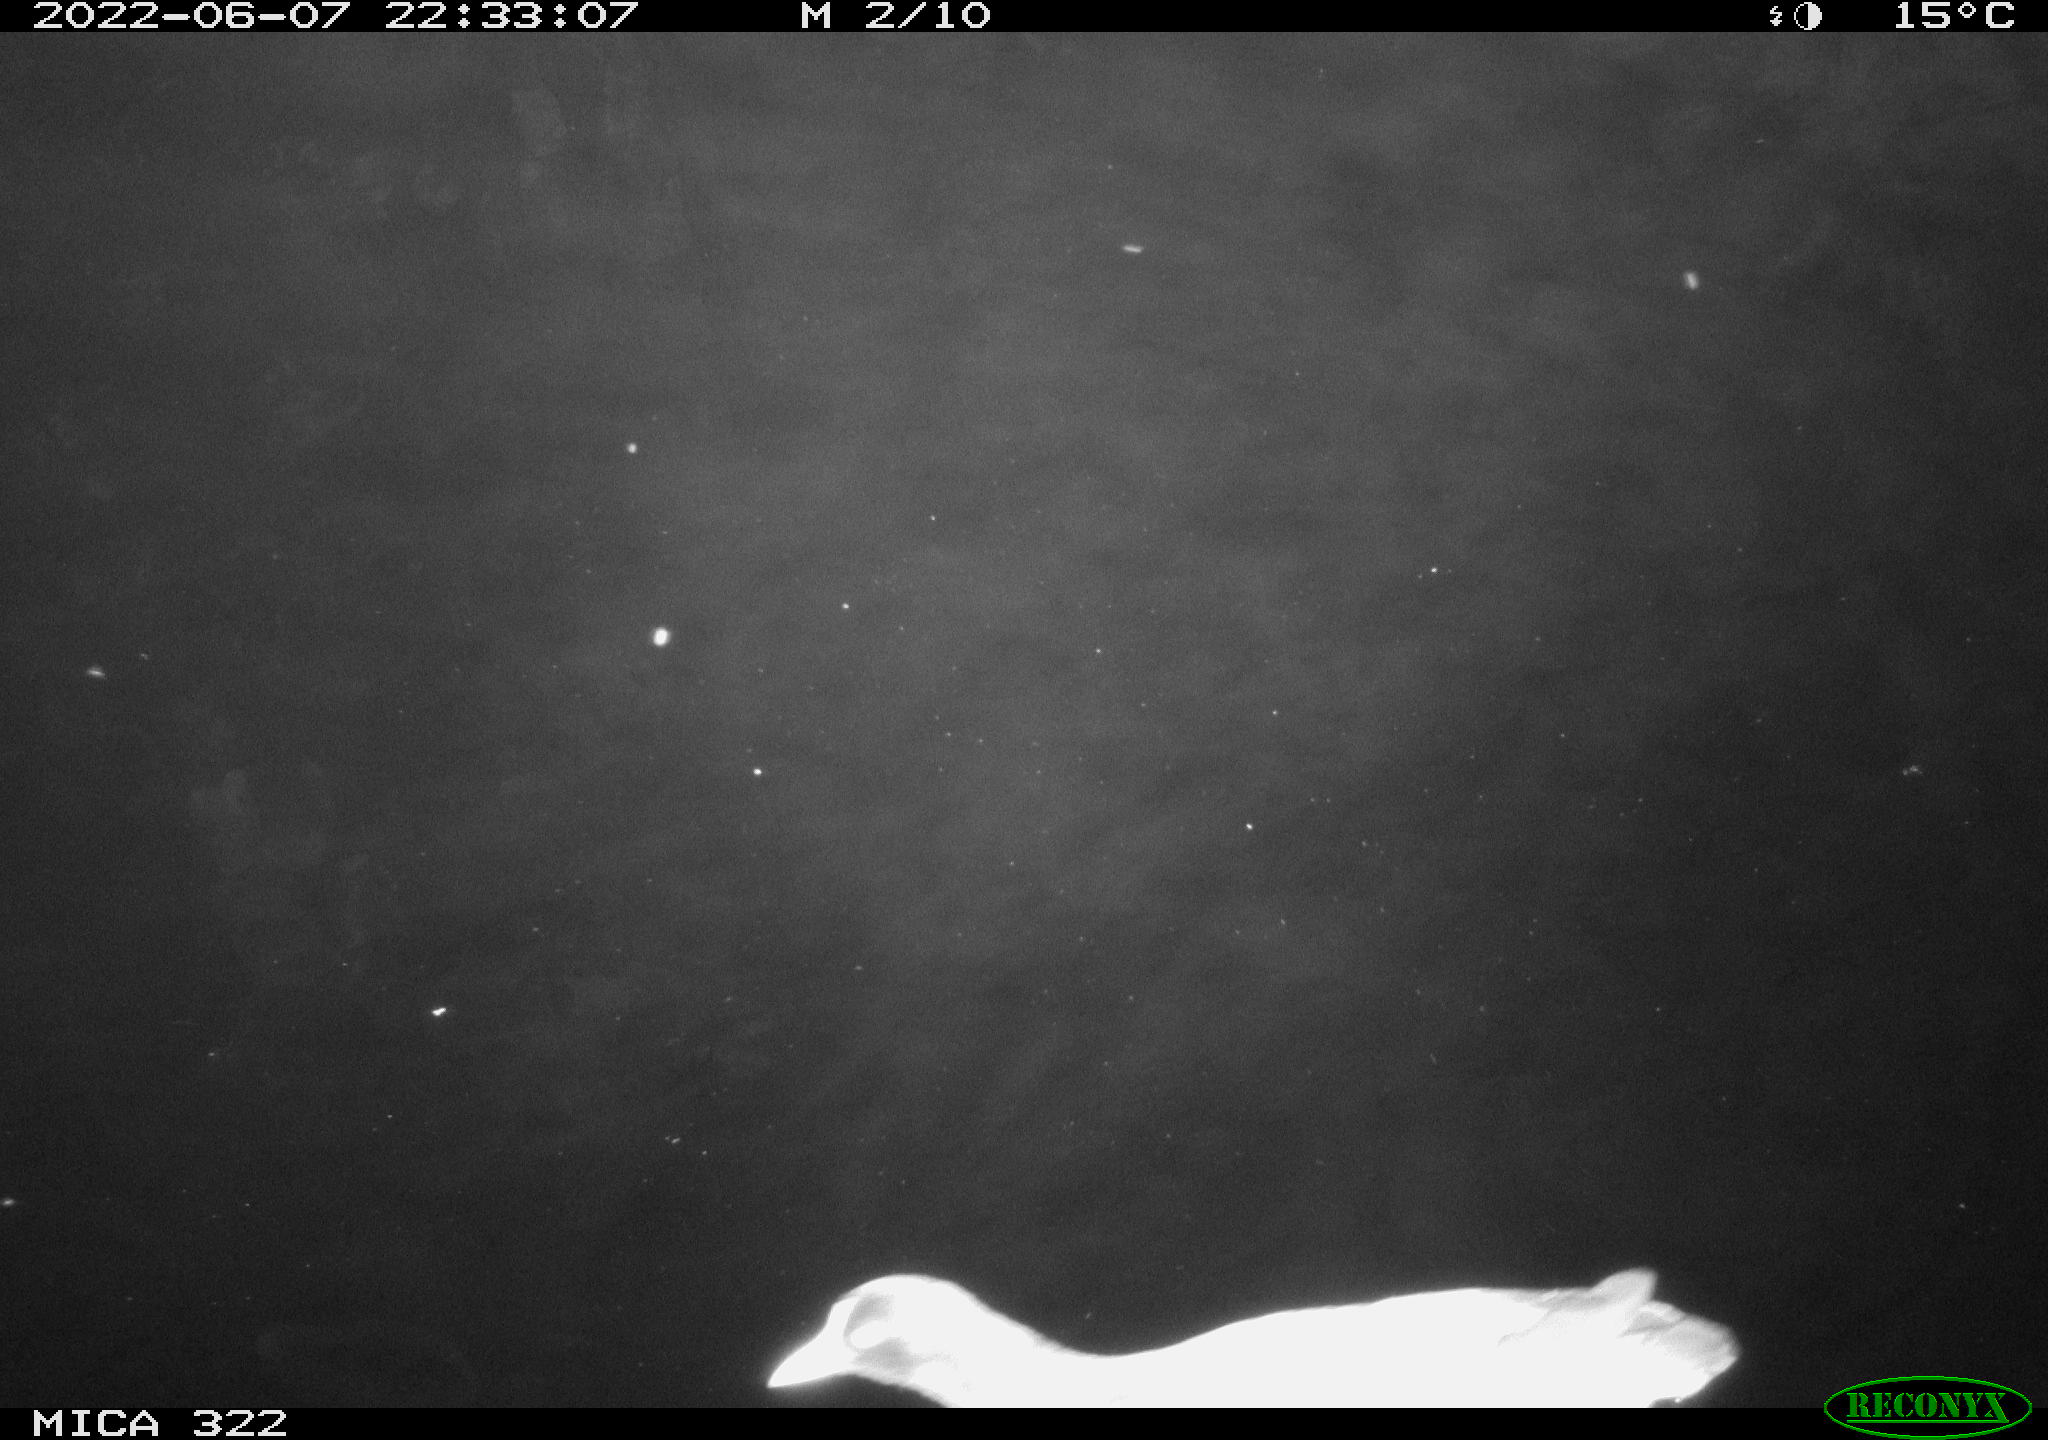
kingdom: Animalia
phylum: Chordata
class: Aves
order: Gruiformes
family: Rallidae
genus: Gallinula
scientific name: Gallinula chloropus
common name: Common moorhen
